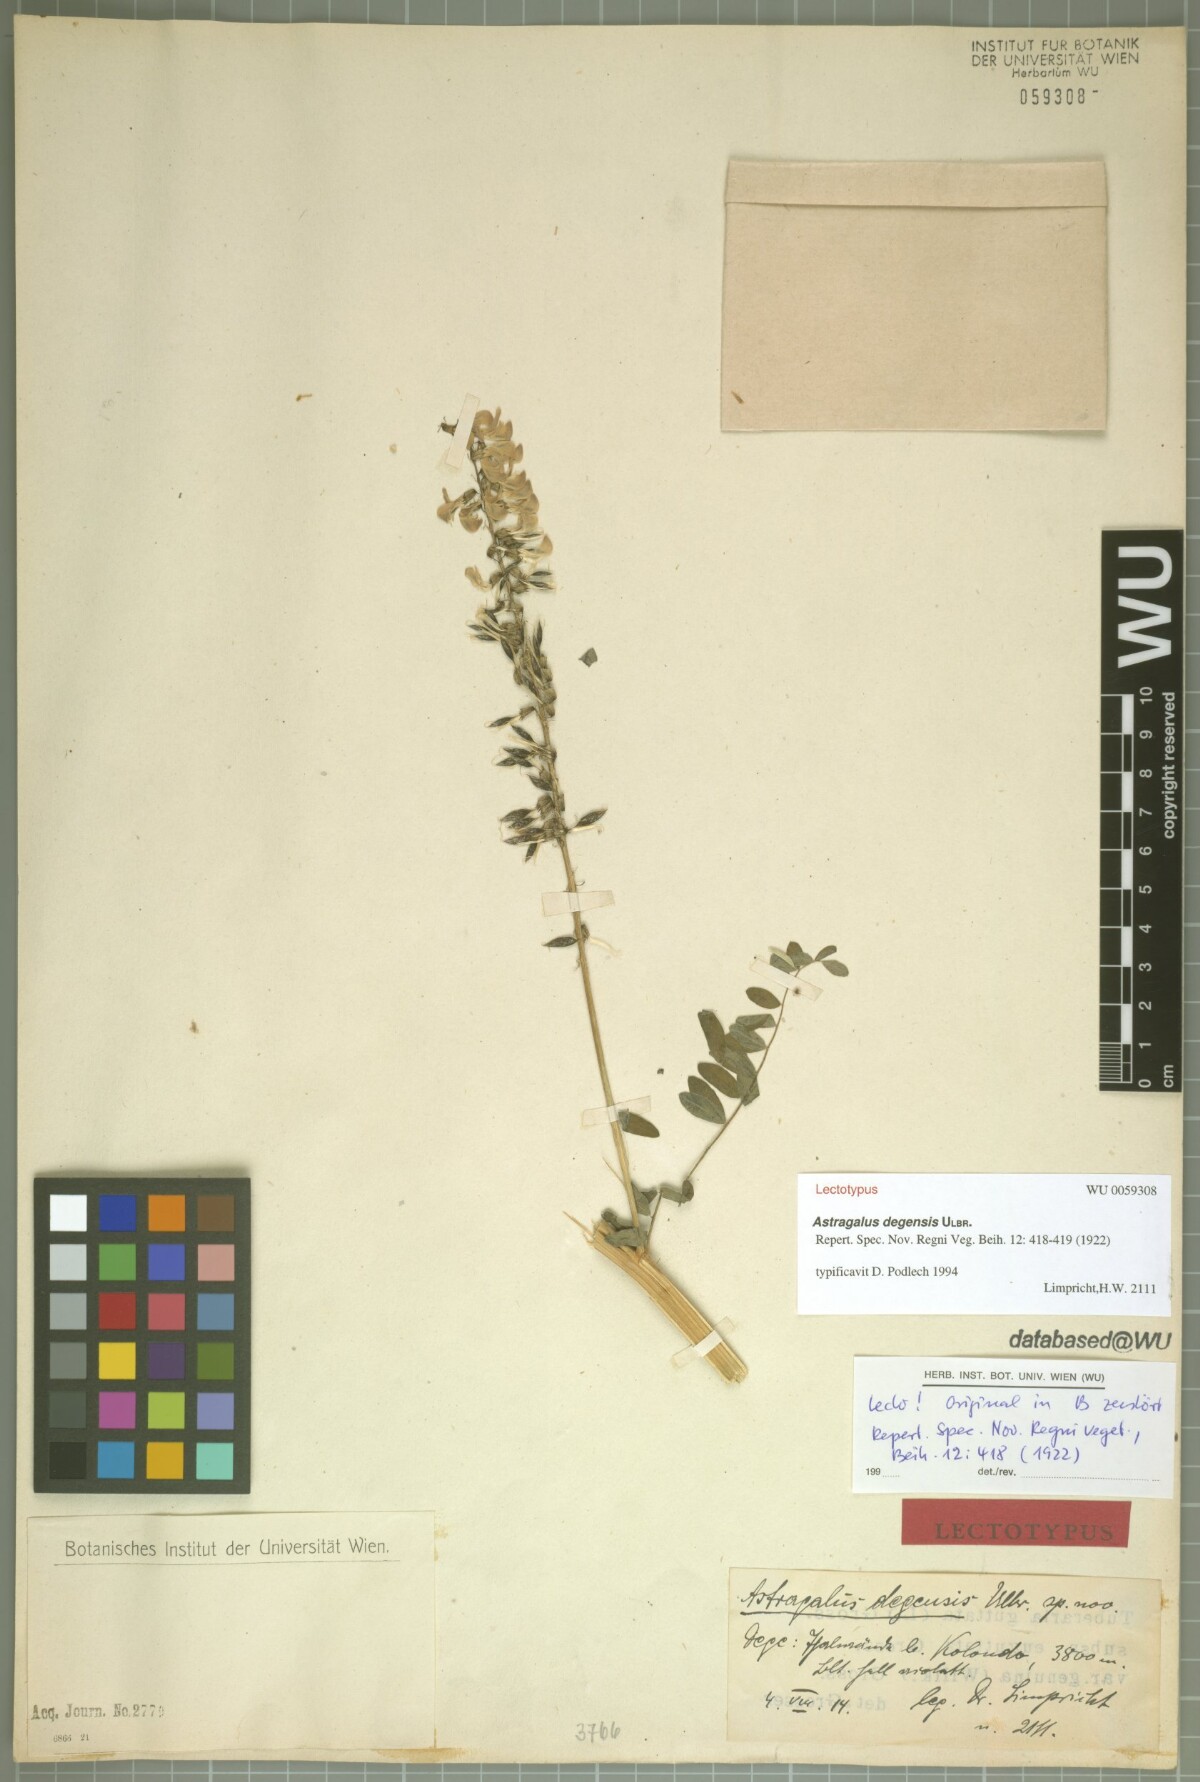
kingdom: Plantae
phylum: Tracheophyta
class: Magnoliopsida
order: Fabales
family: Fabaceae
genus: Astragalus
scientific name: Astragalus degensis
